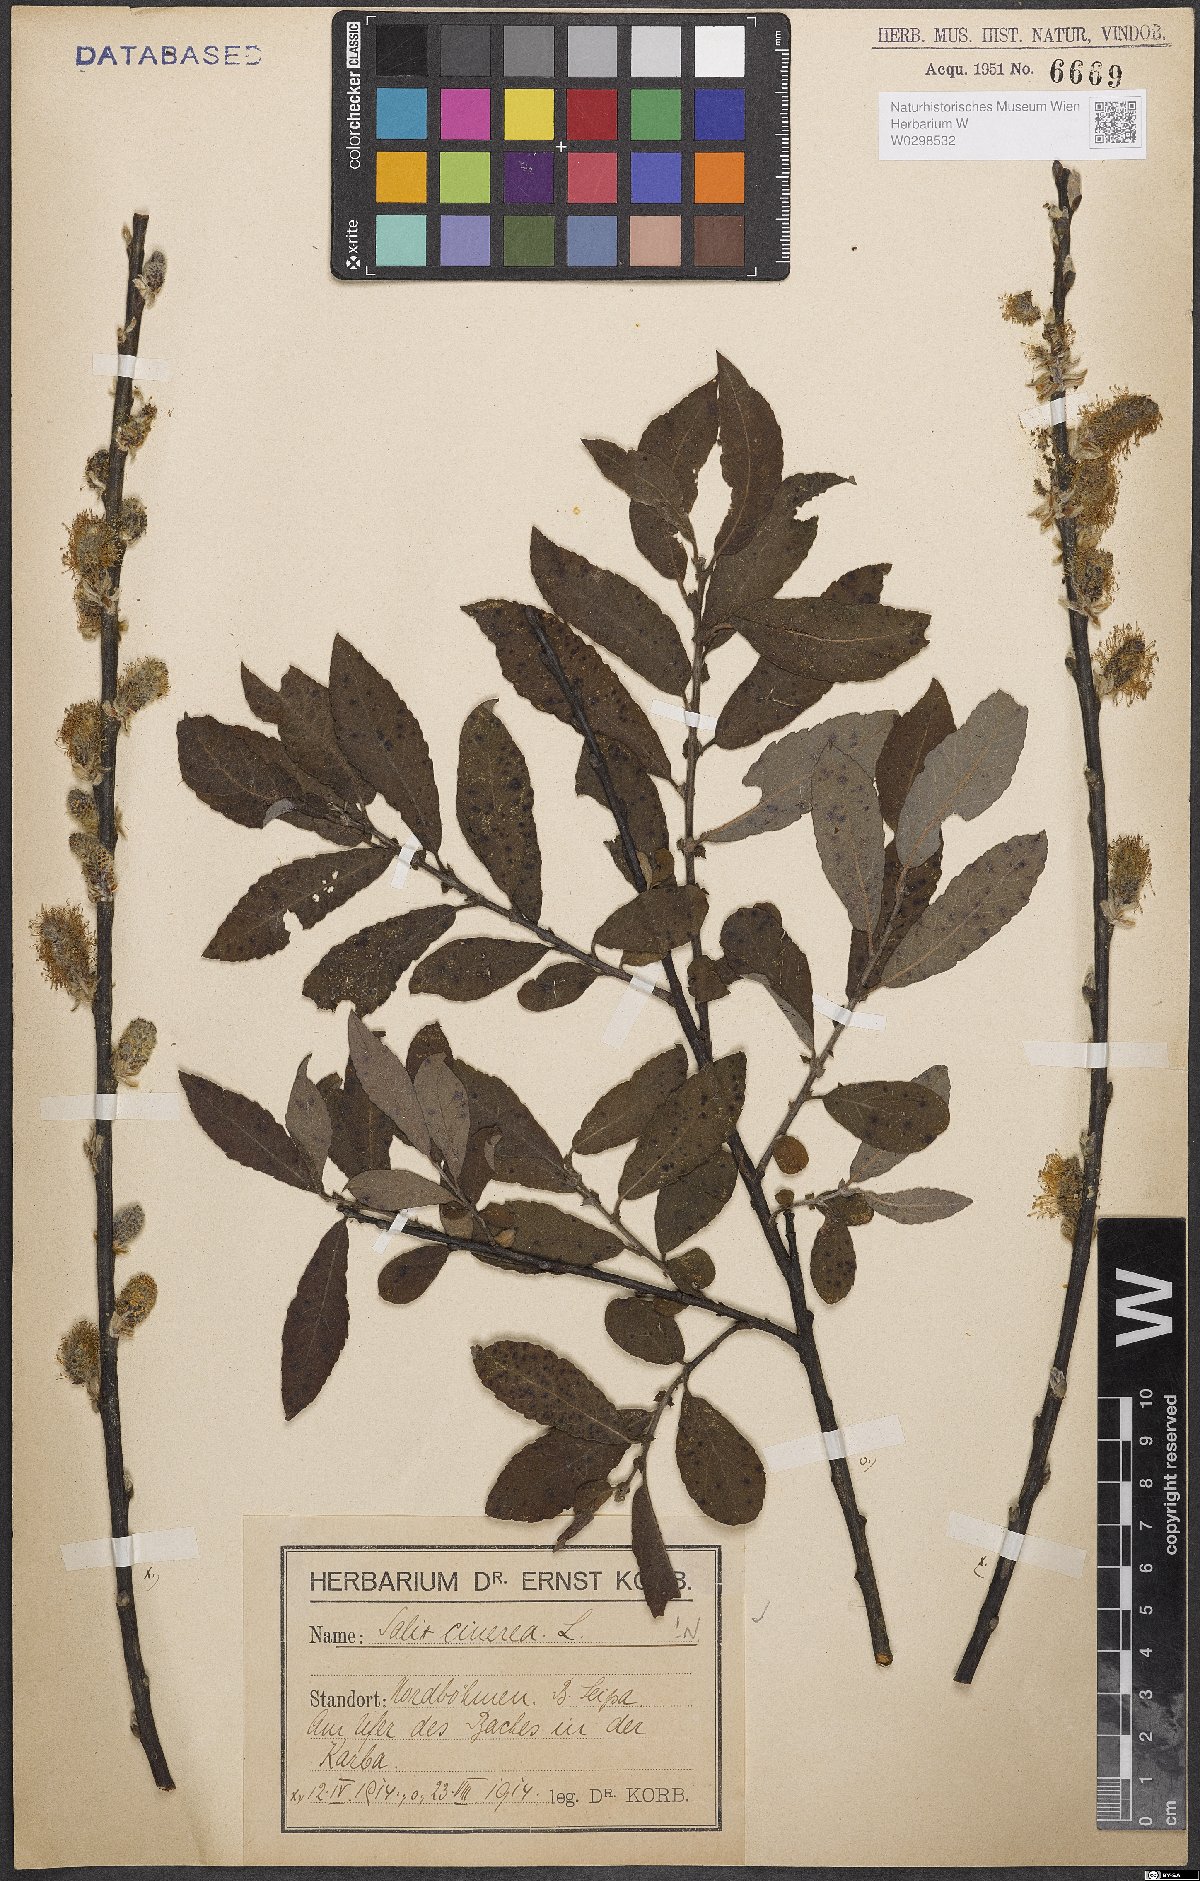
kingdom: Plantae
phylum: Tracheophyta
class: Magnoliopsida
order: Malpighiales
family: Salicaceae
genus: Salix
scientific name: Salix cinerea
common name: Common sallow
